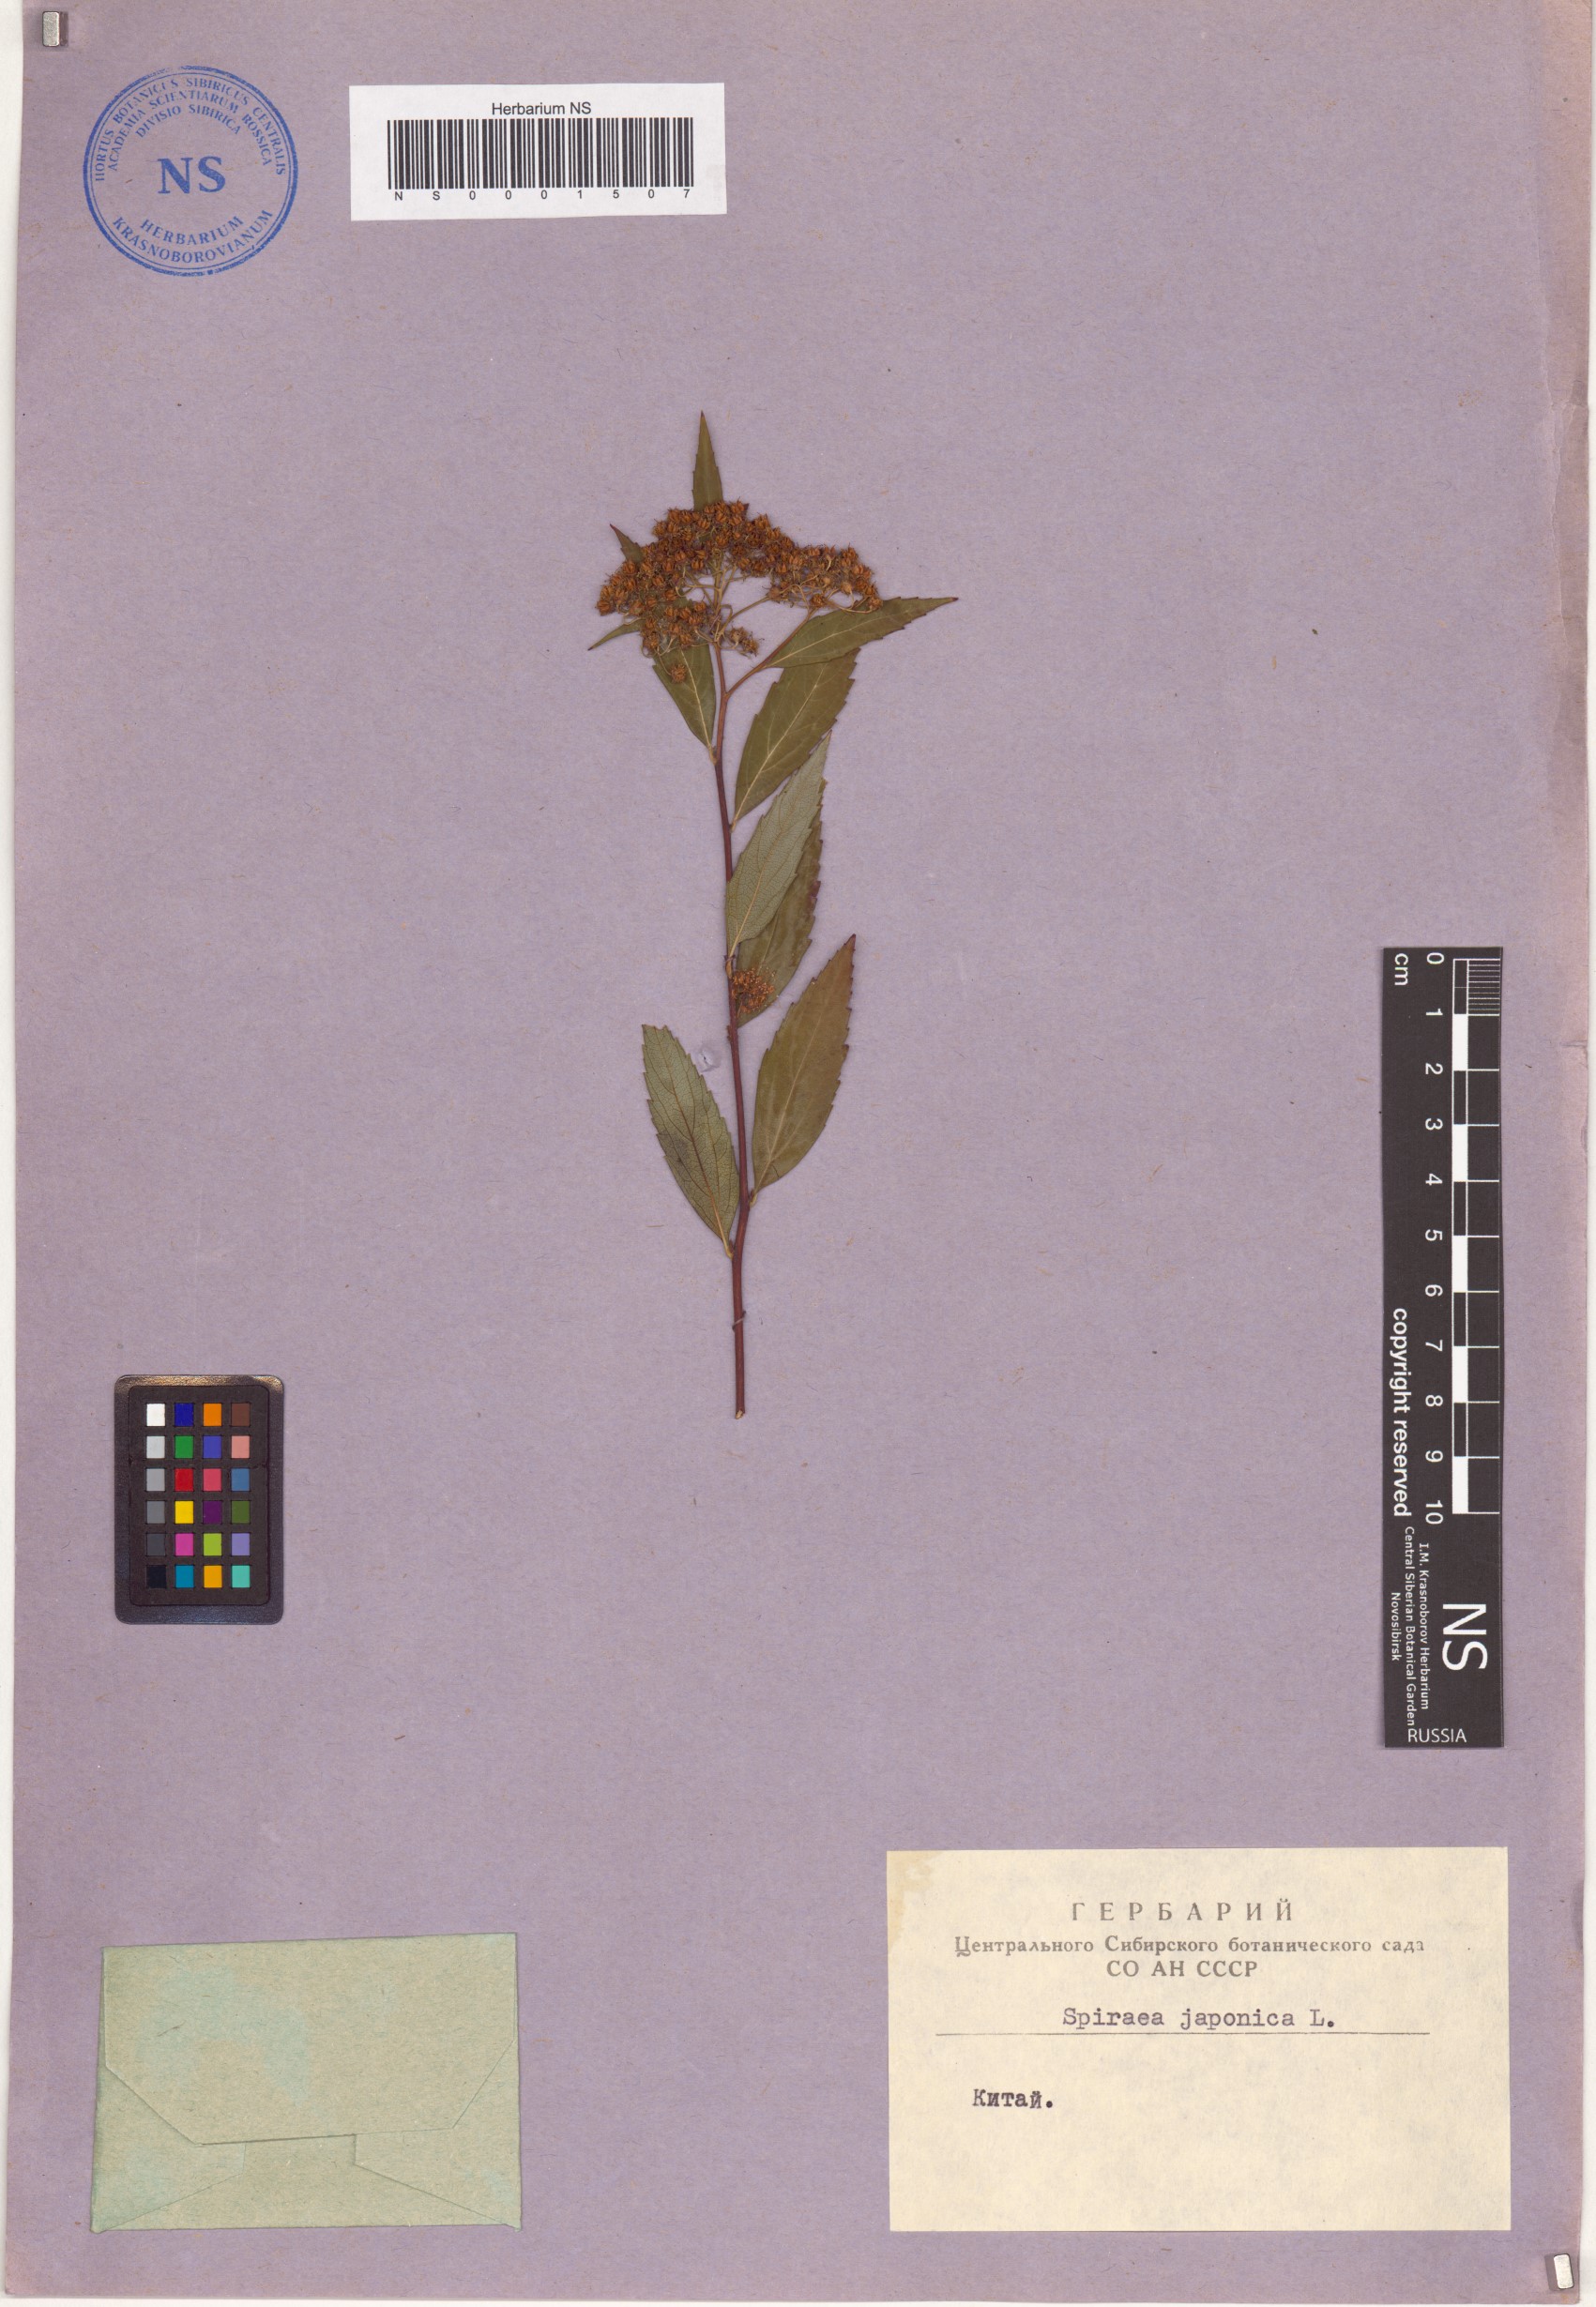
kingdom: Plantae
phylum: Tracheophyta
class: Magnoliopsida
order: Rosales
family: Rosaceae
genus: Spiraea
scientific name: Spiraea japonica
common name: Japanese spiraea
